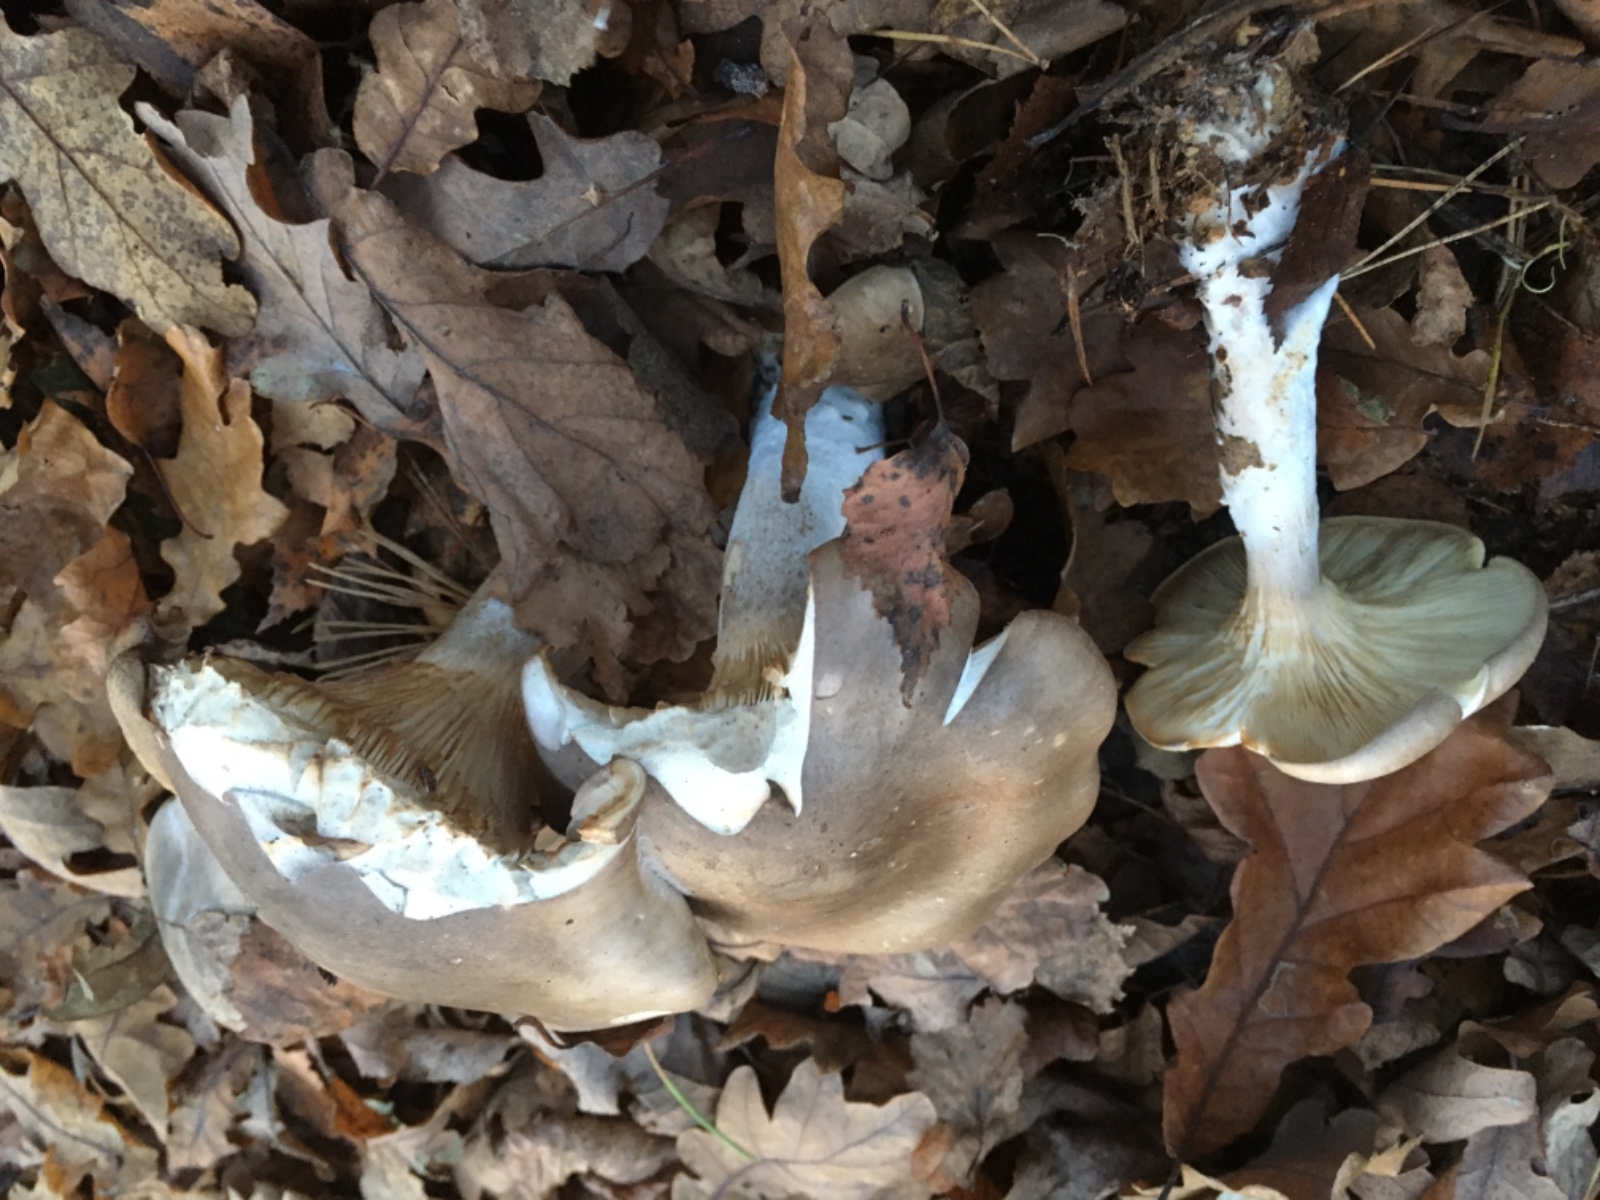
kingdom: Fungi
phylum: Basidiomycota
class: Agaricomycetes
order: Agaricales
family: Tricholomataceae
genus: Clitocybe
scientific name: Clitocybe nebularis
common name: tåge-tragthat
